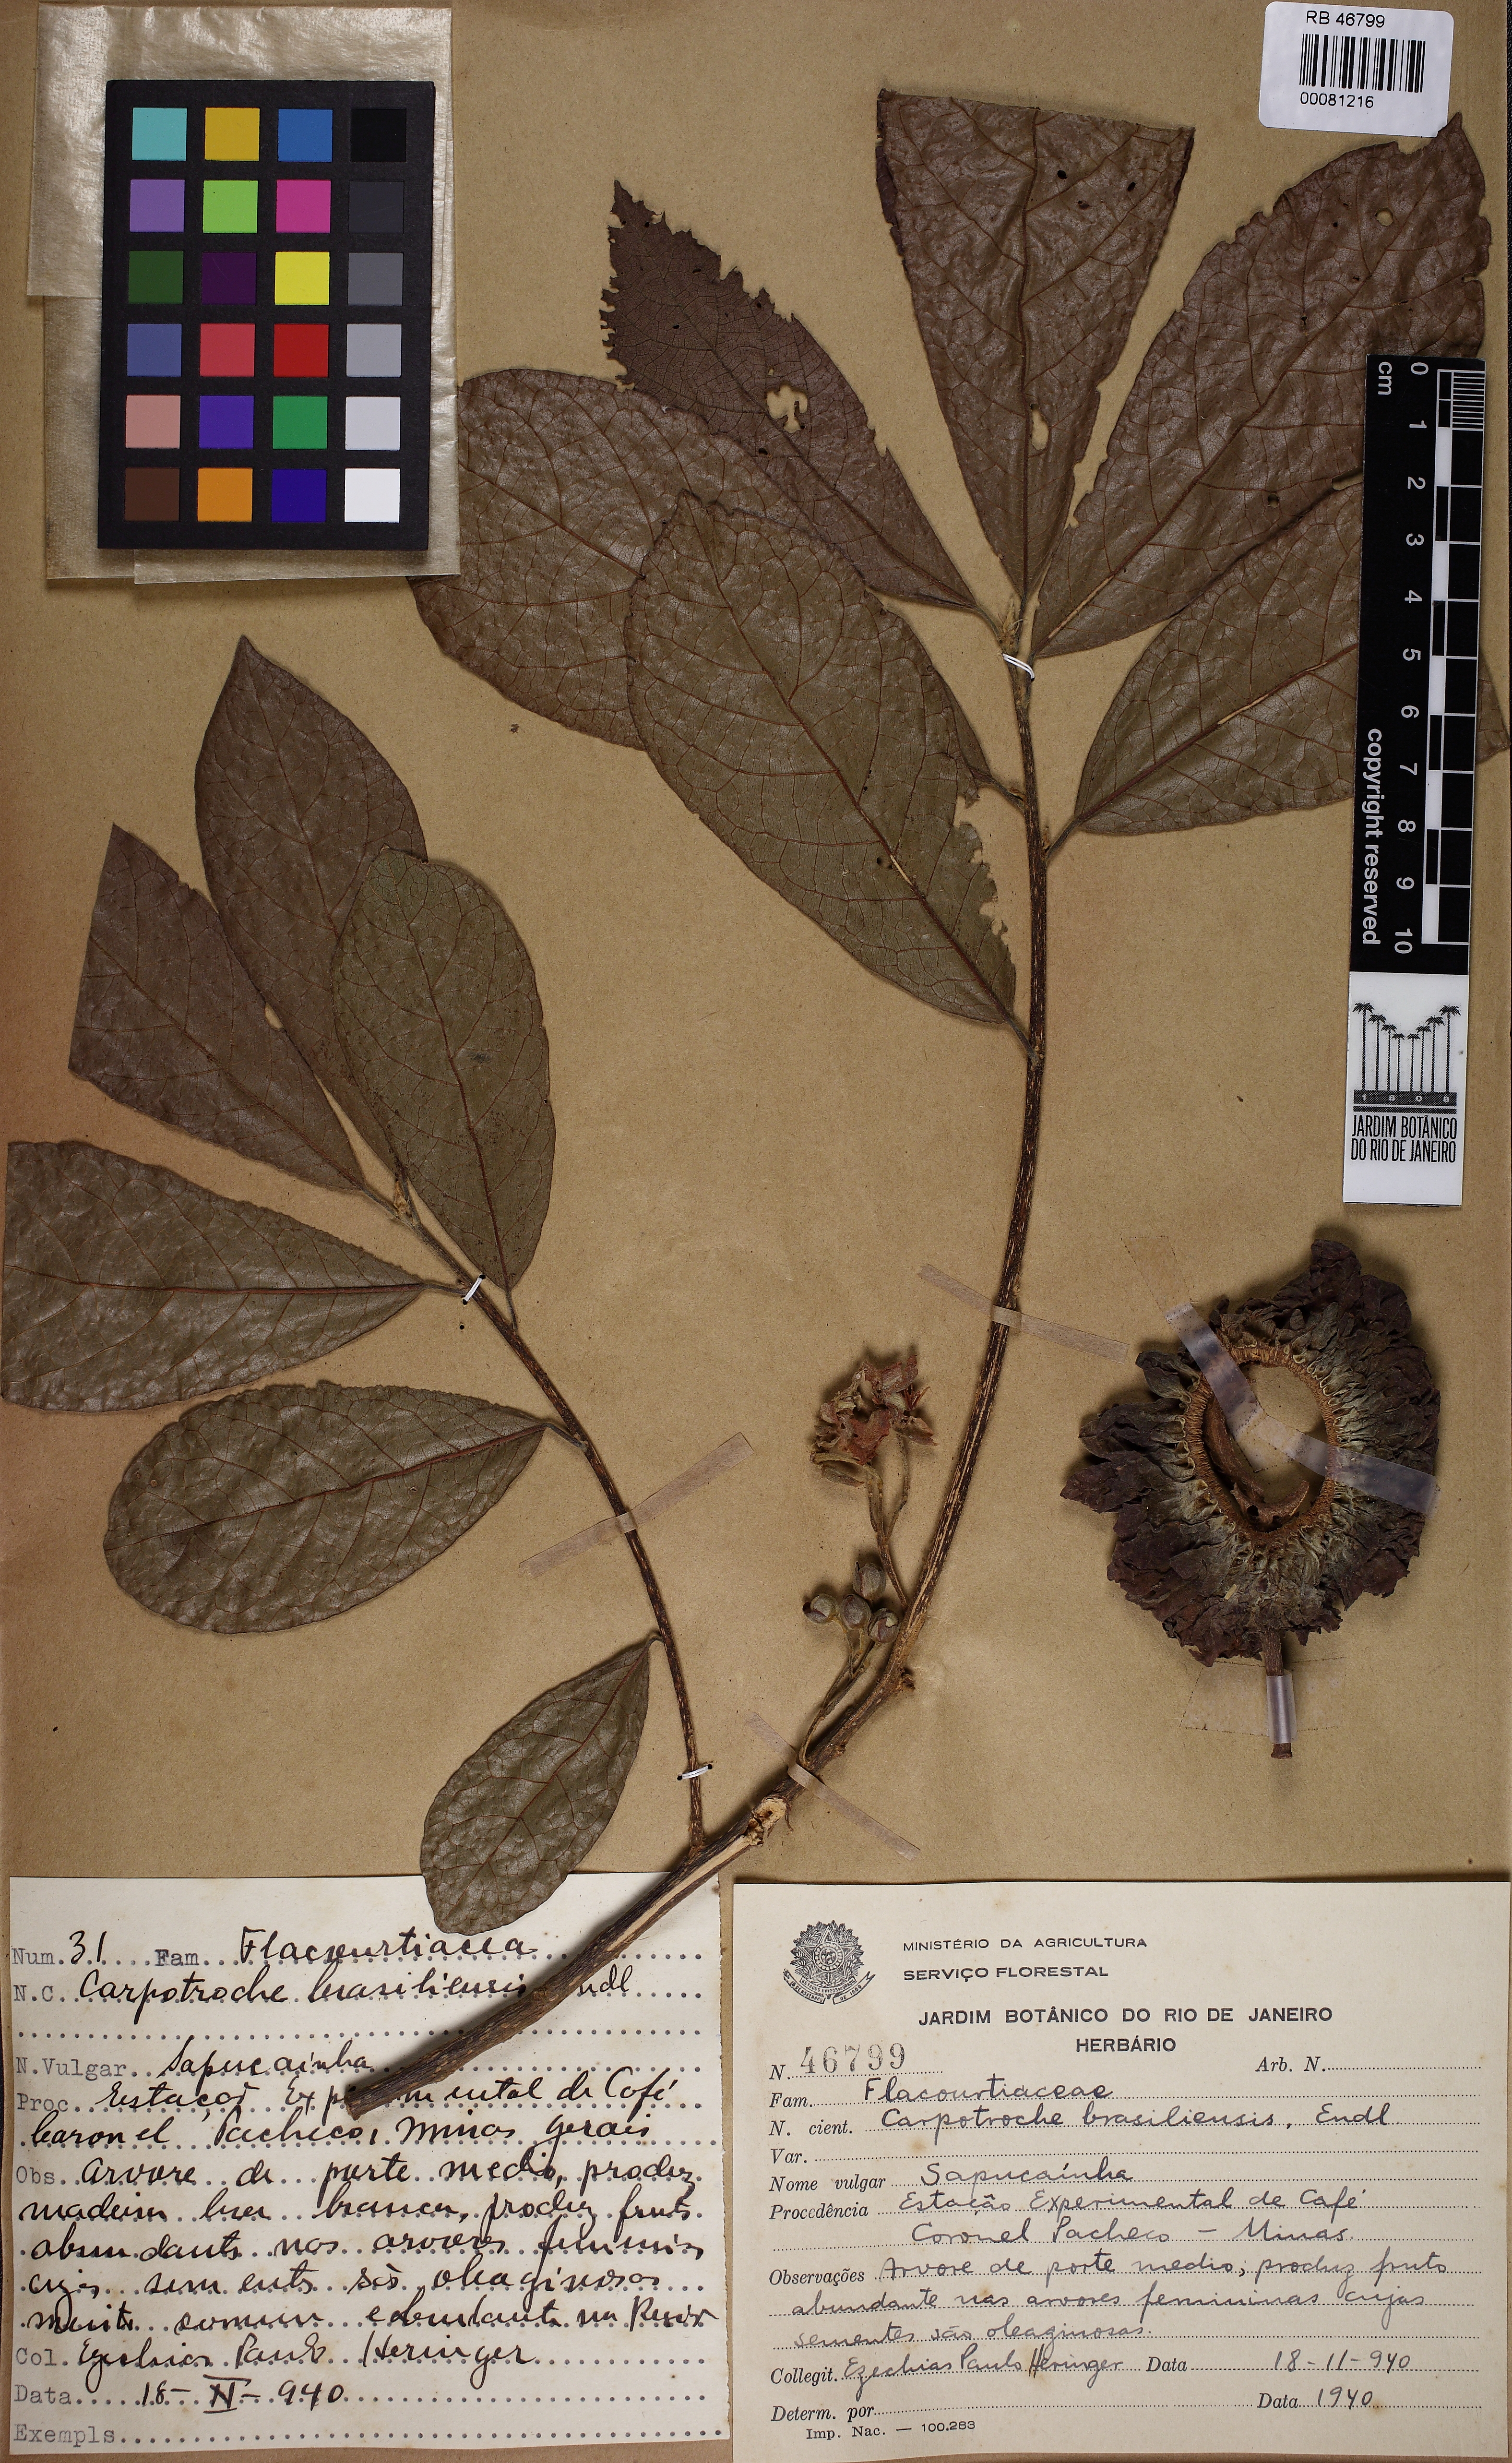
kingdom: Plantae
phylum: Tracheophyta
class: Magnoliopsida
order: Malpighiales
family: Achariaceae
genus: Carpotroche
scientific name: Carpotroche brasiliensis
